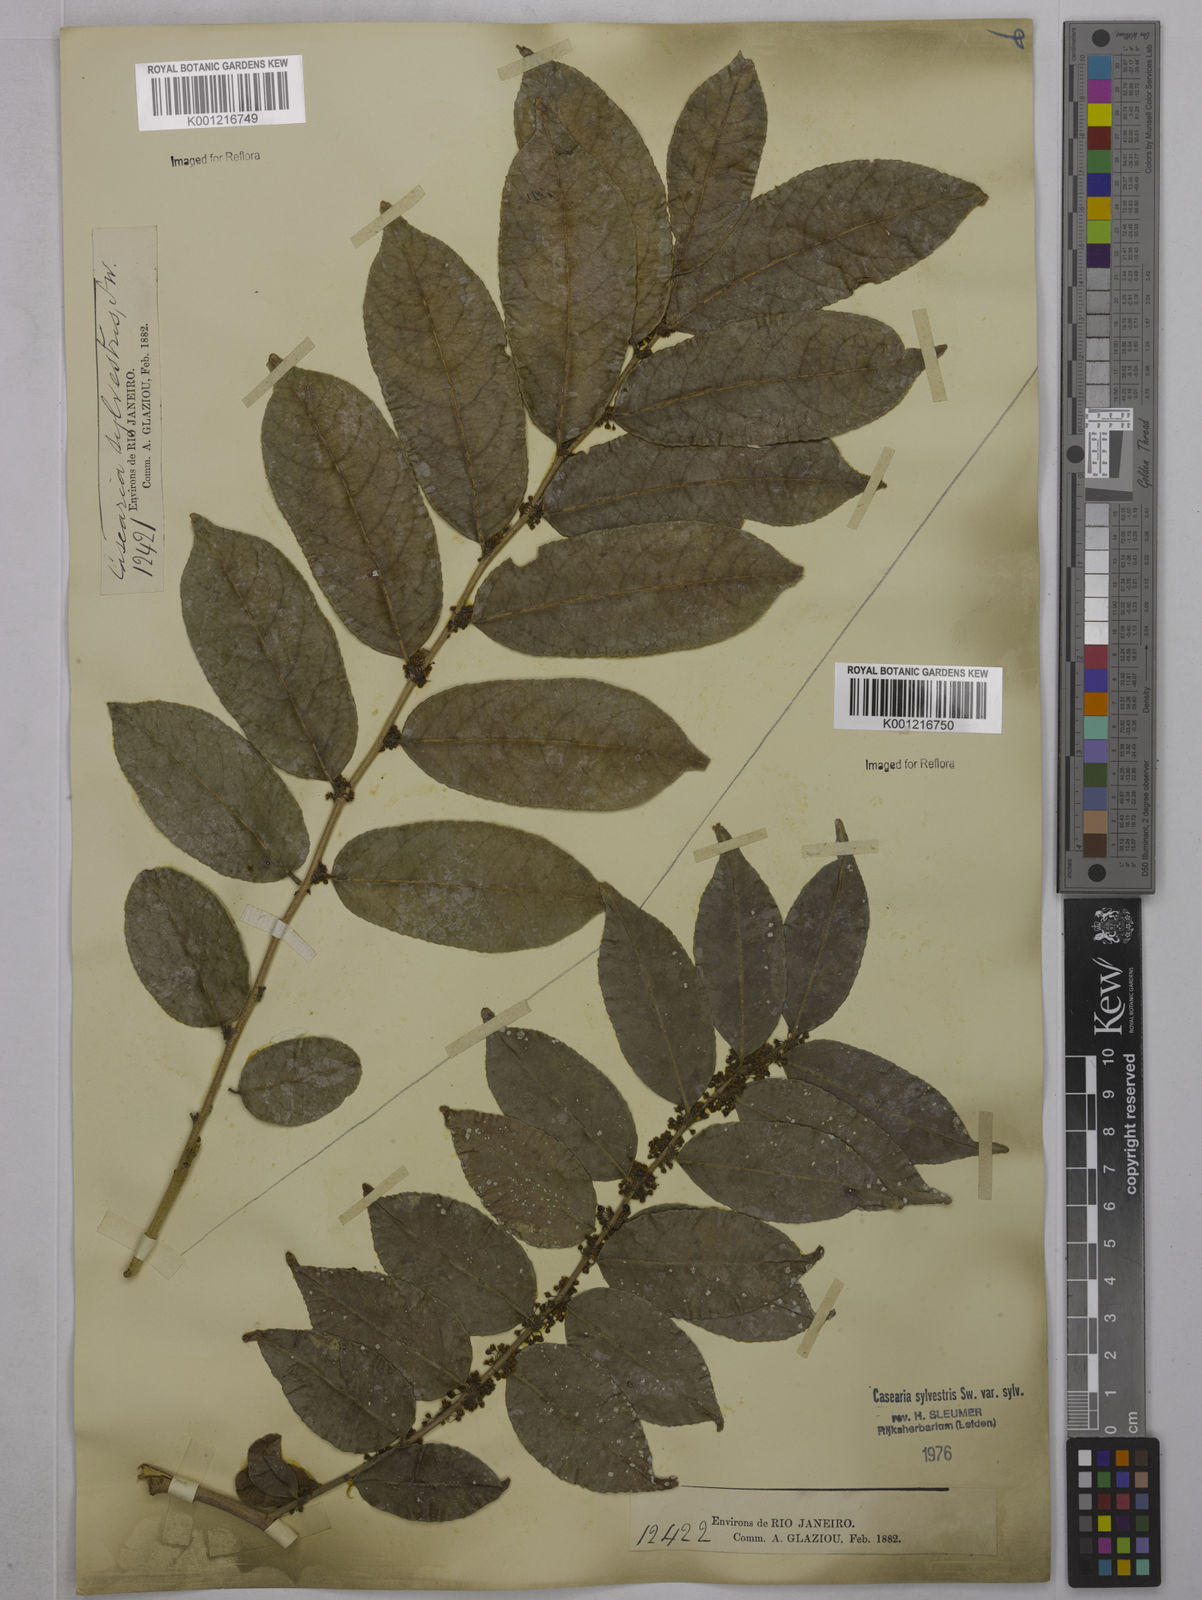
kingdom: Plantae
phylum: Tracheophyta
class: Magnoliopsida
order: Malpighiales
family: Salicaceae
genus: Casearia
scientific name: Casearia sylvestris
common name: Wild sage
